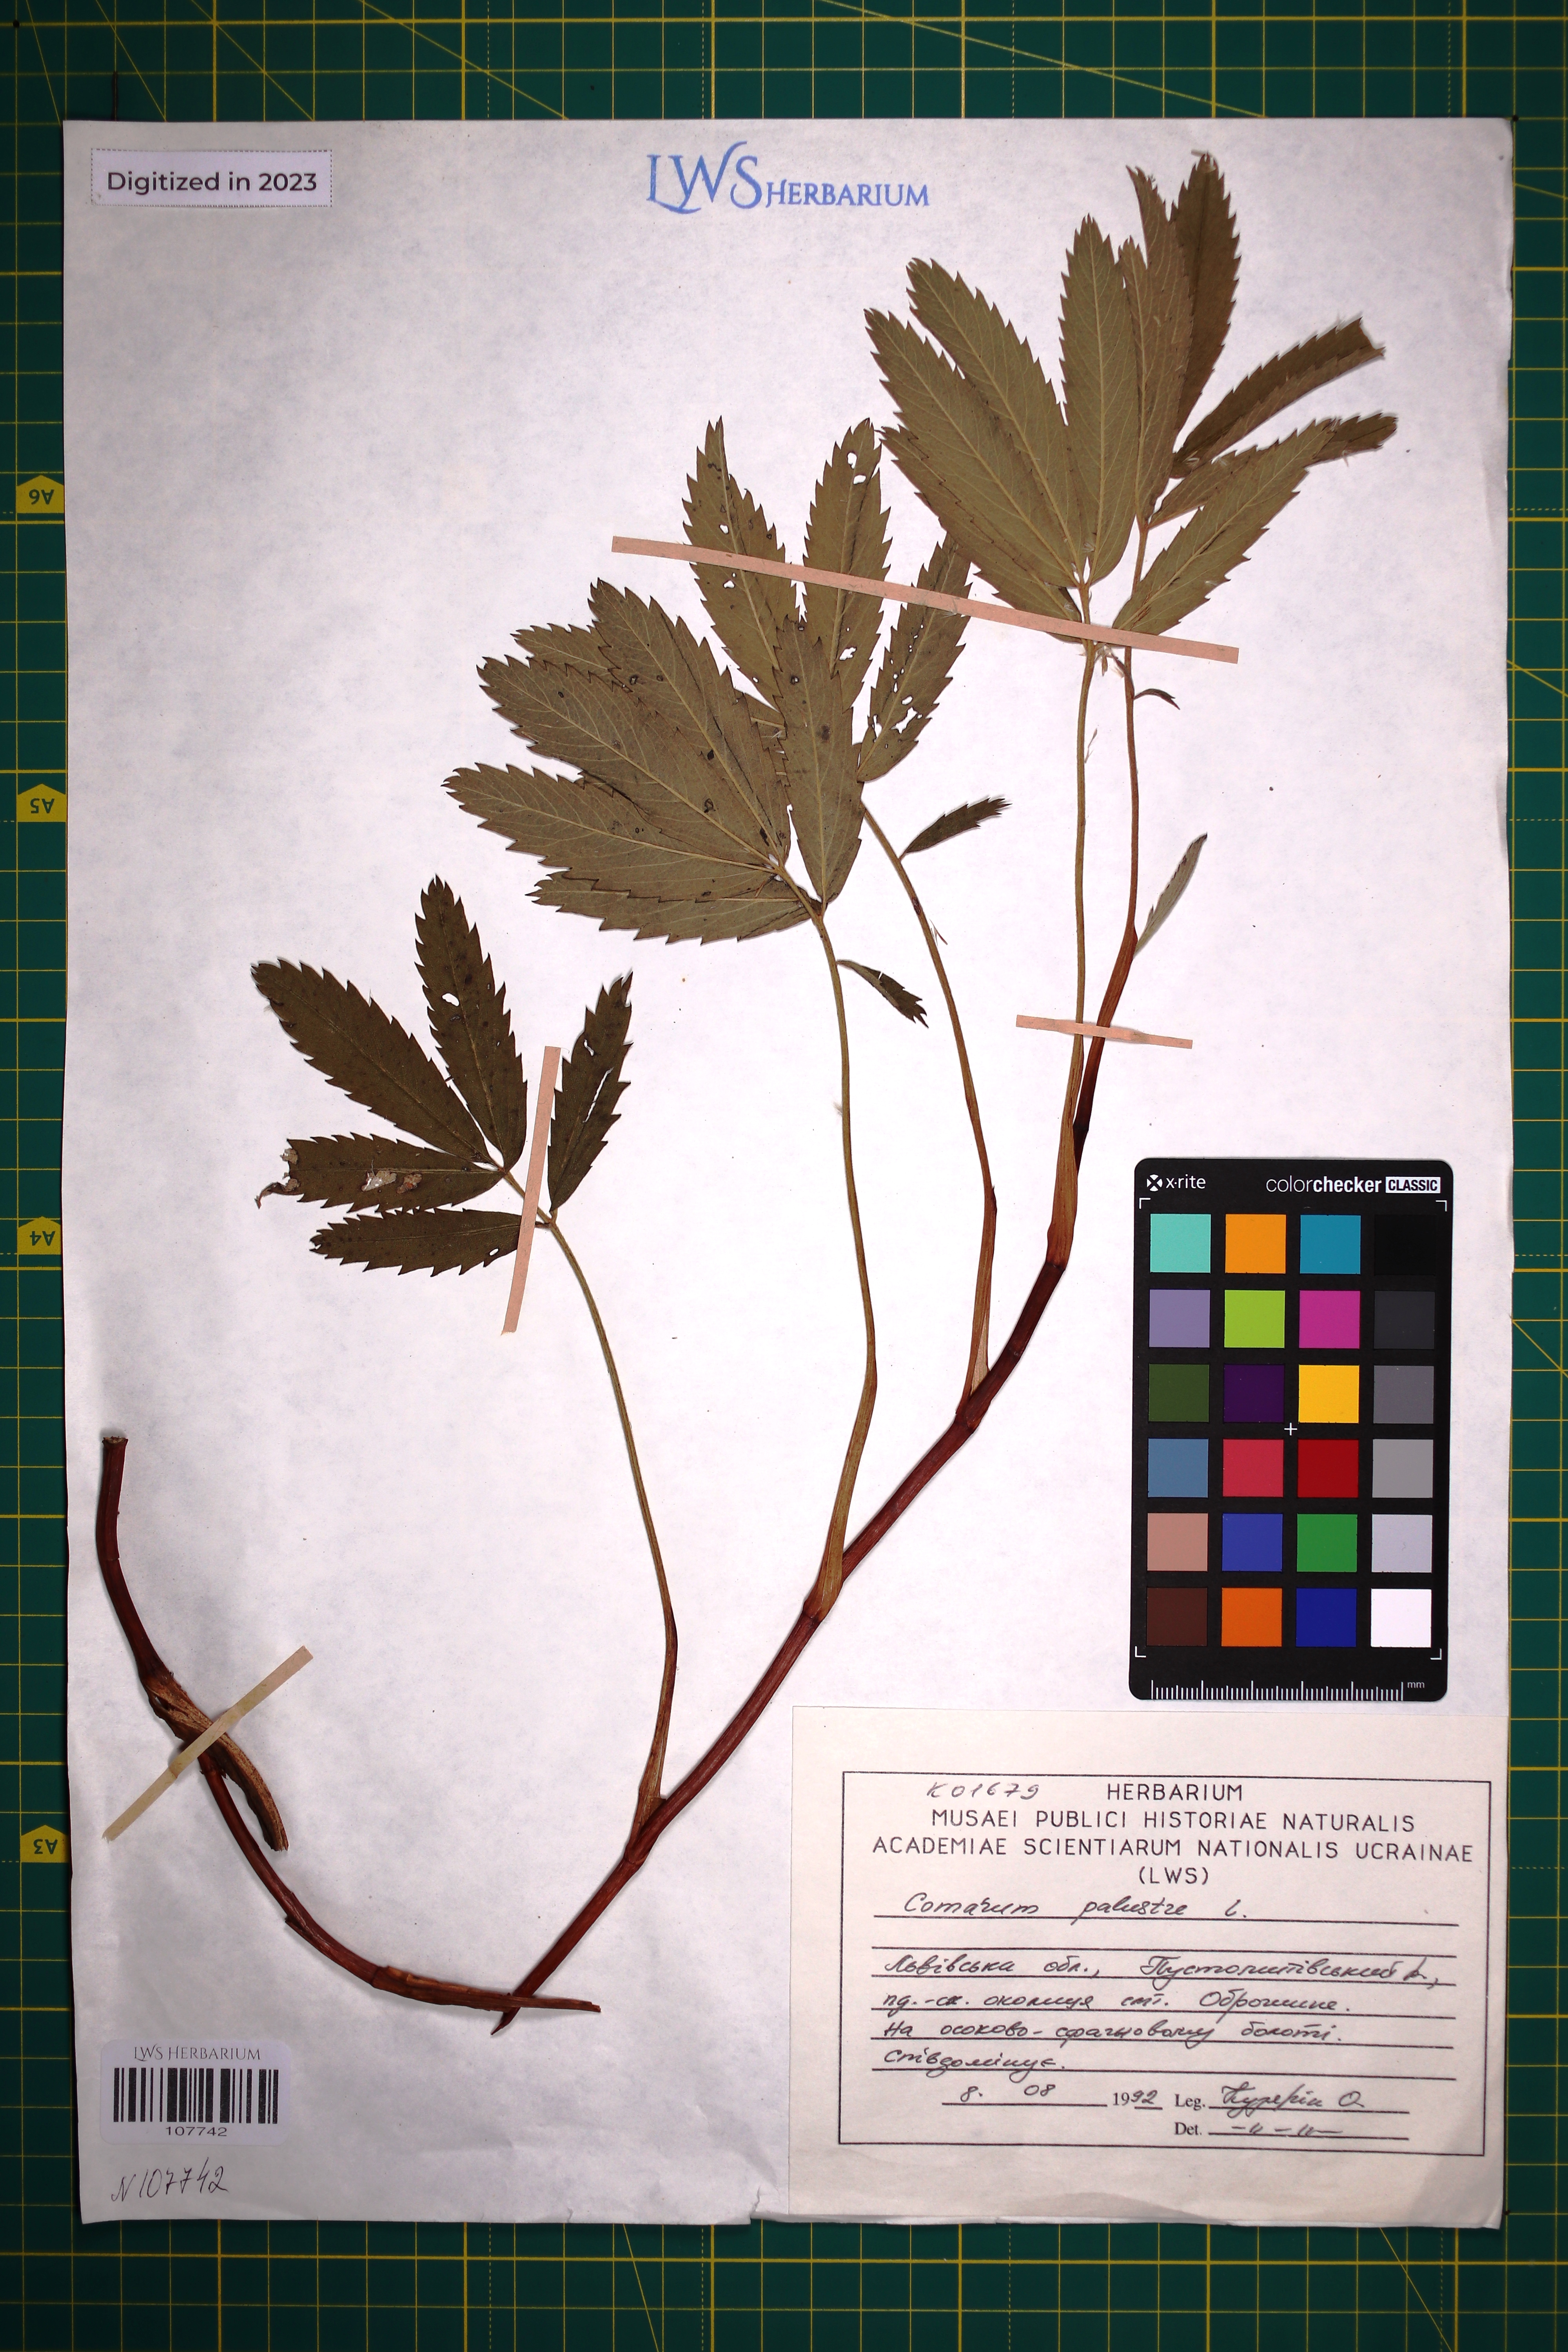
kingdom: Plantae
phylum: Tracheophyta
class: Magnoliopsida
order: Rosales
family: Rosaceae
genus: Comarum
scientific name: Comarum palustre
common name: Marsh cinquefoil
